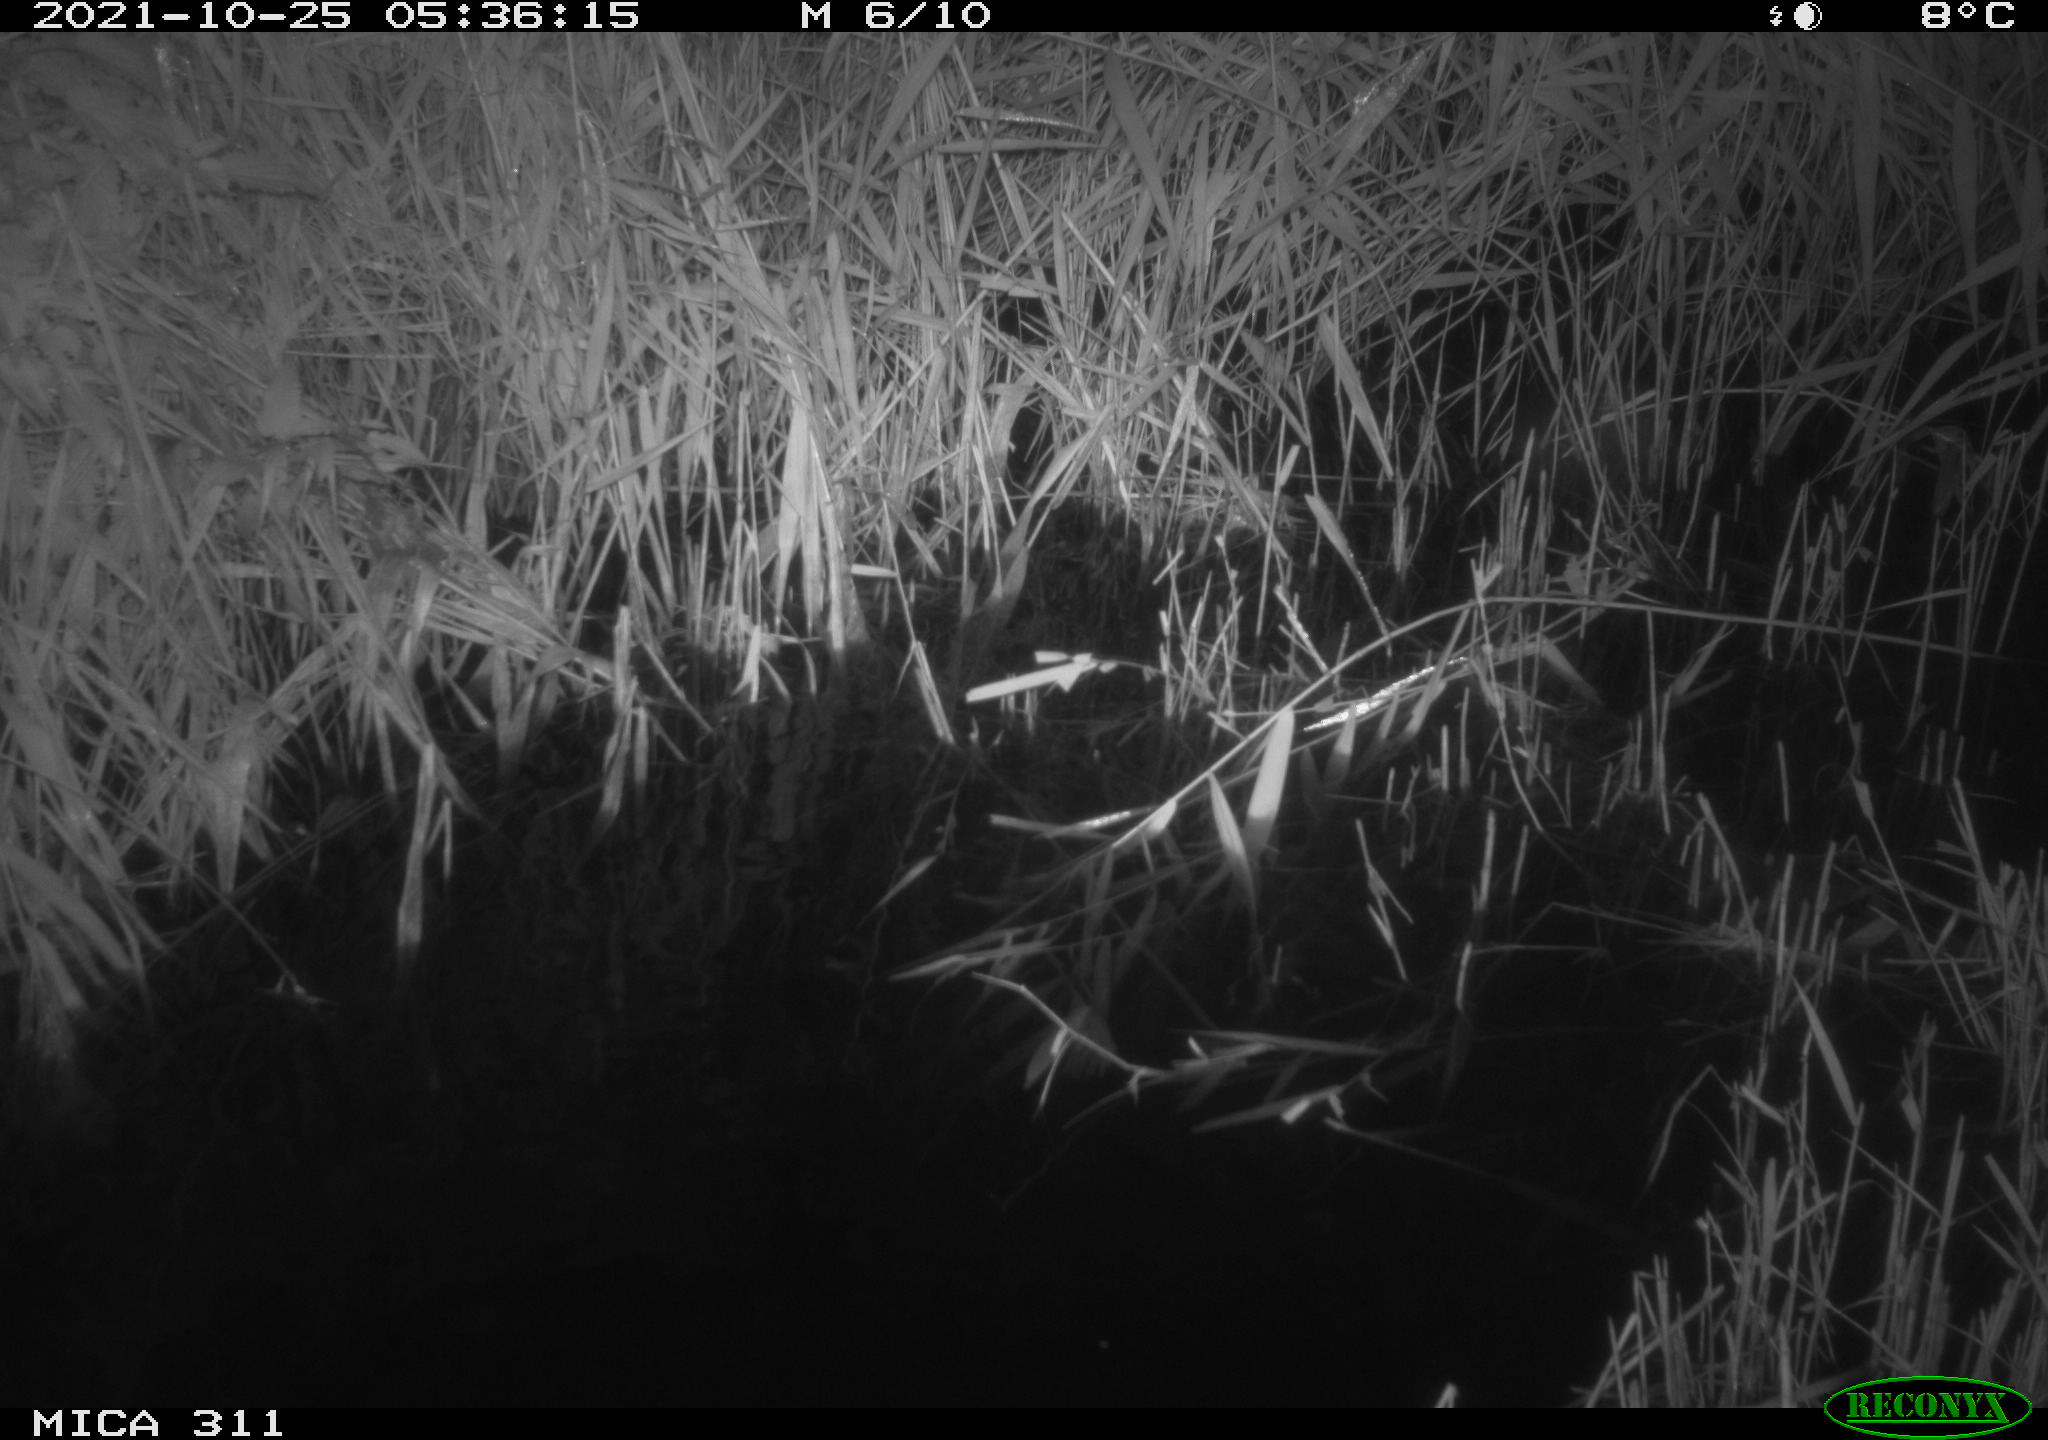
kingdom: Animalia
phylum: Chordata
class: Mammalia
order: Rodentia
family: Muridae
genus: Rattus
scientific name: Rattus norvegicus
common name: Brown rat
